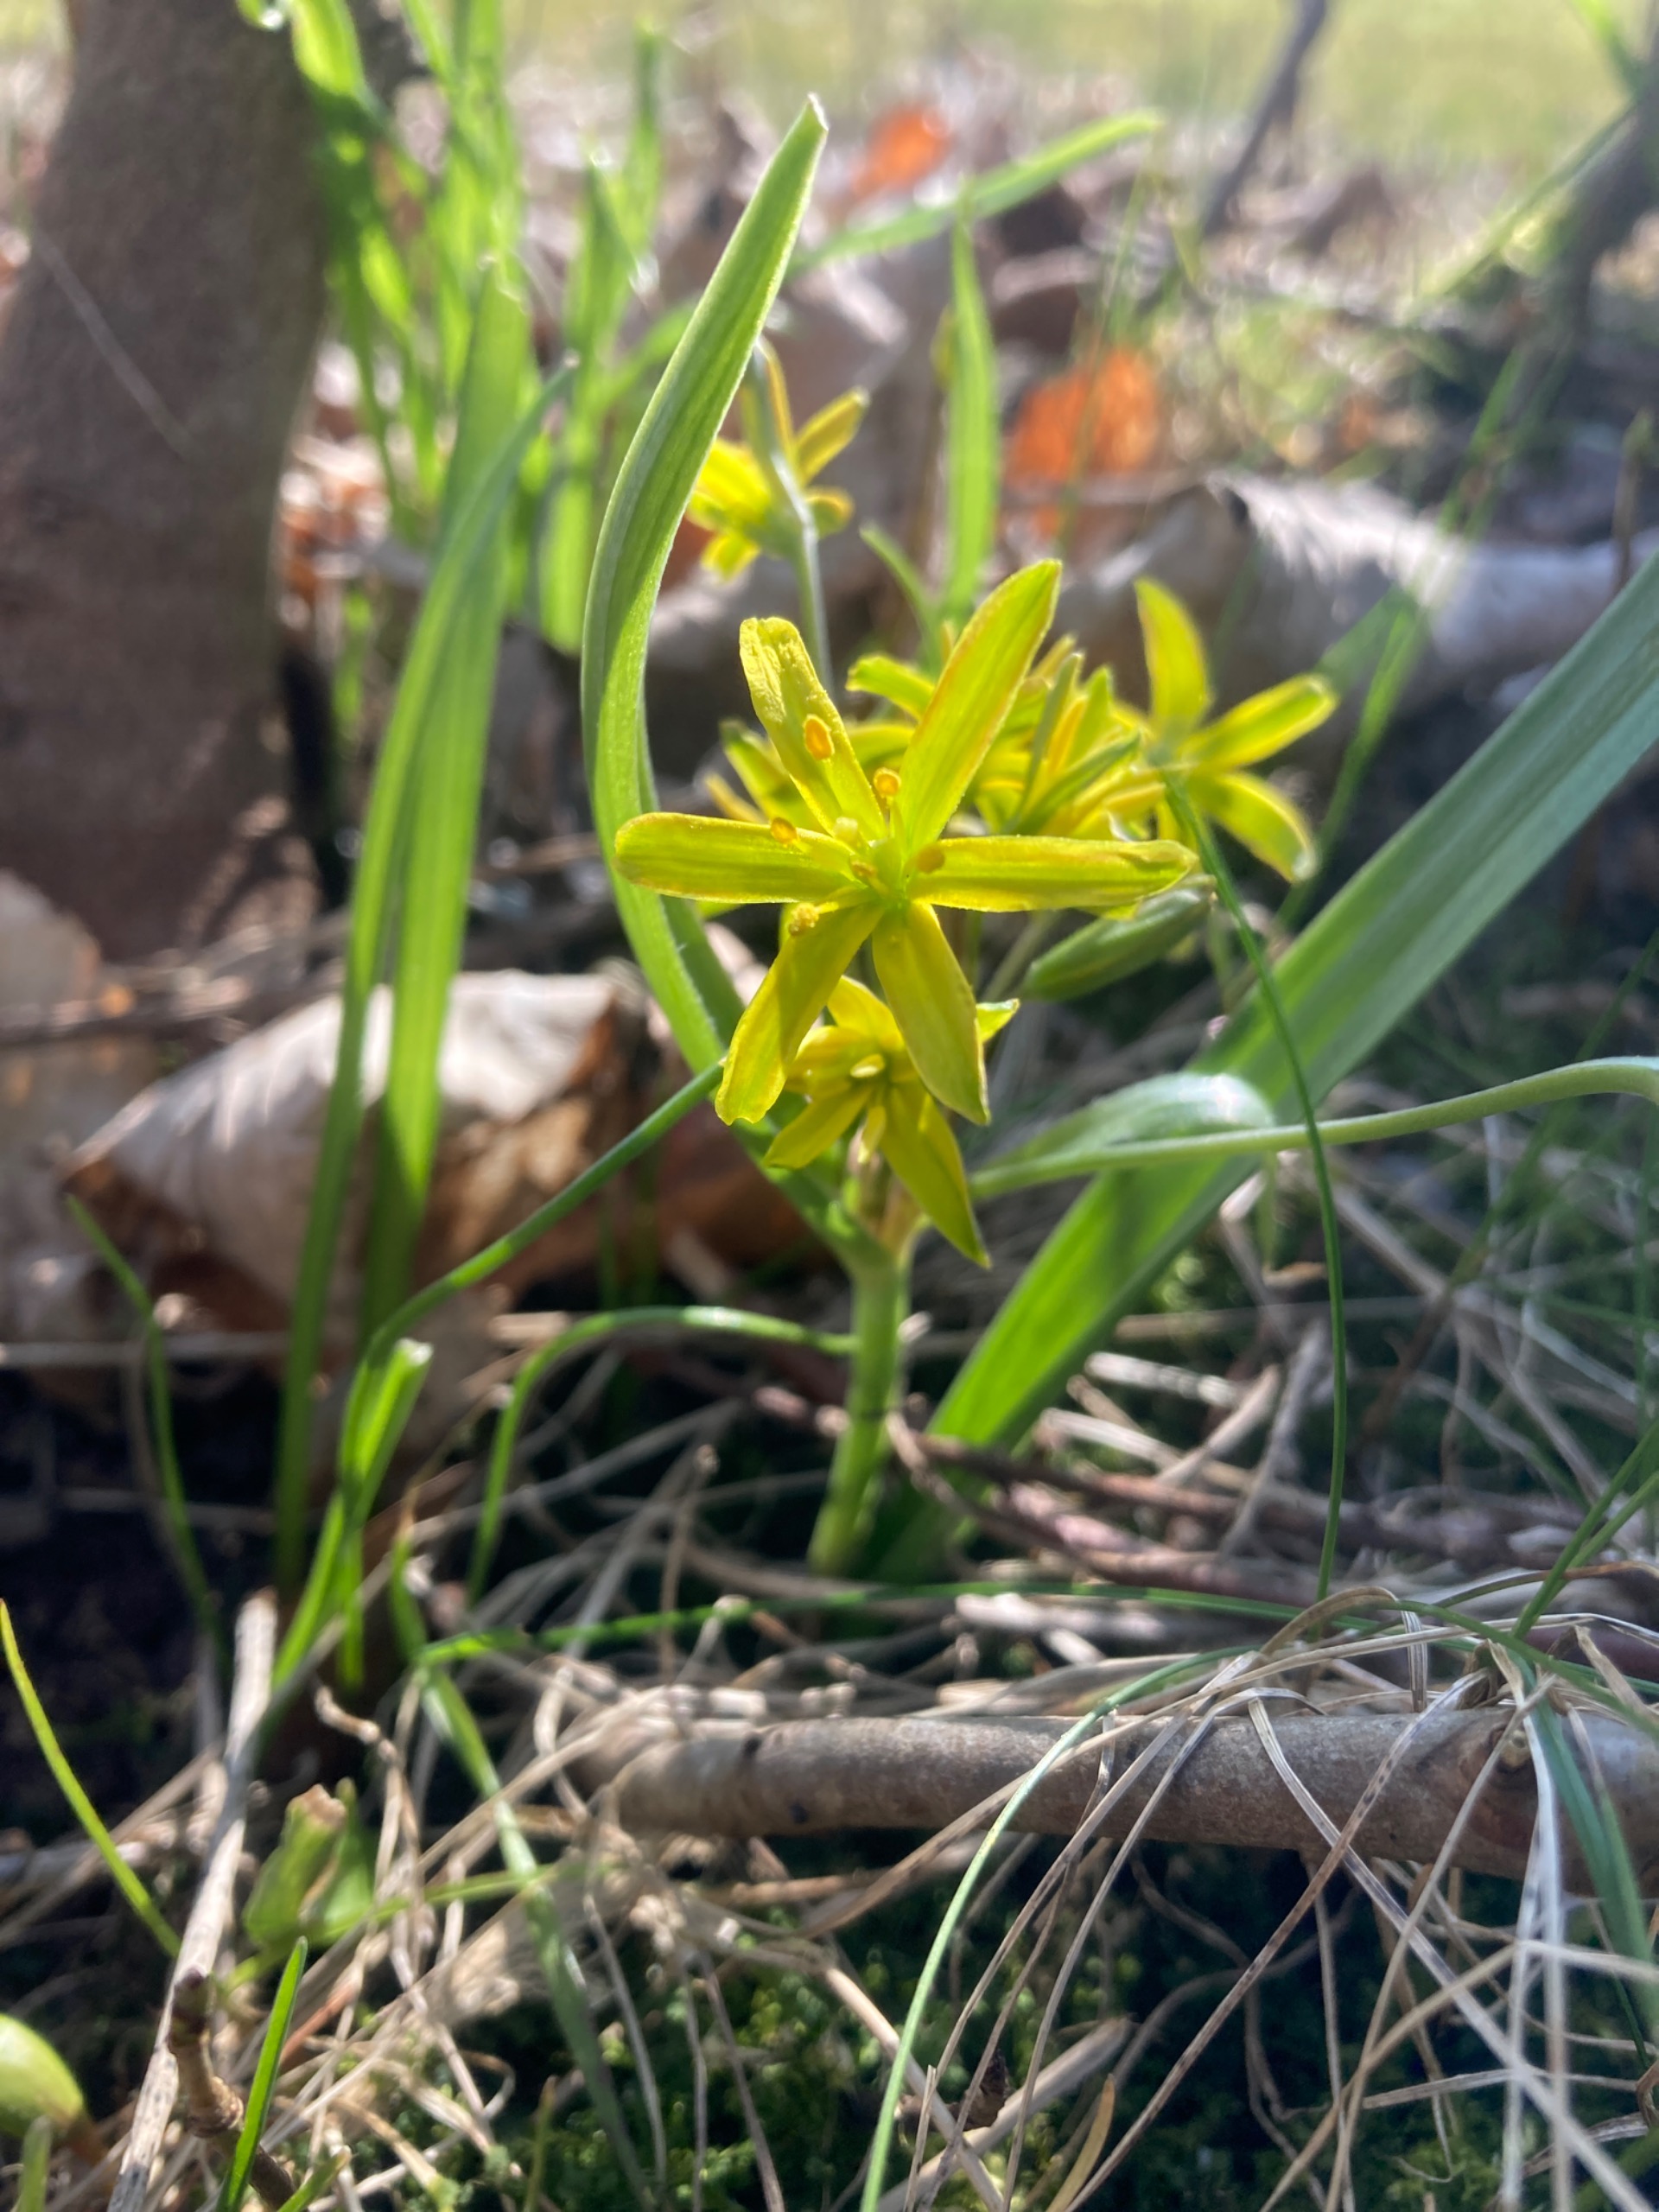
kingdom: Plantae
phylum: Tracheophyta
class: Liliopsida
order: Liliales
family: Liliaceae
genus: Gagea
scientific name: Gagea lutea
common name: Almindelig guldstjerne
